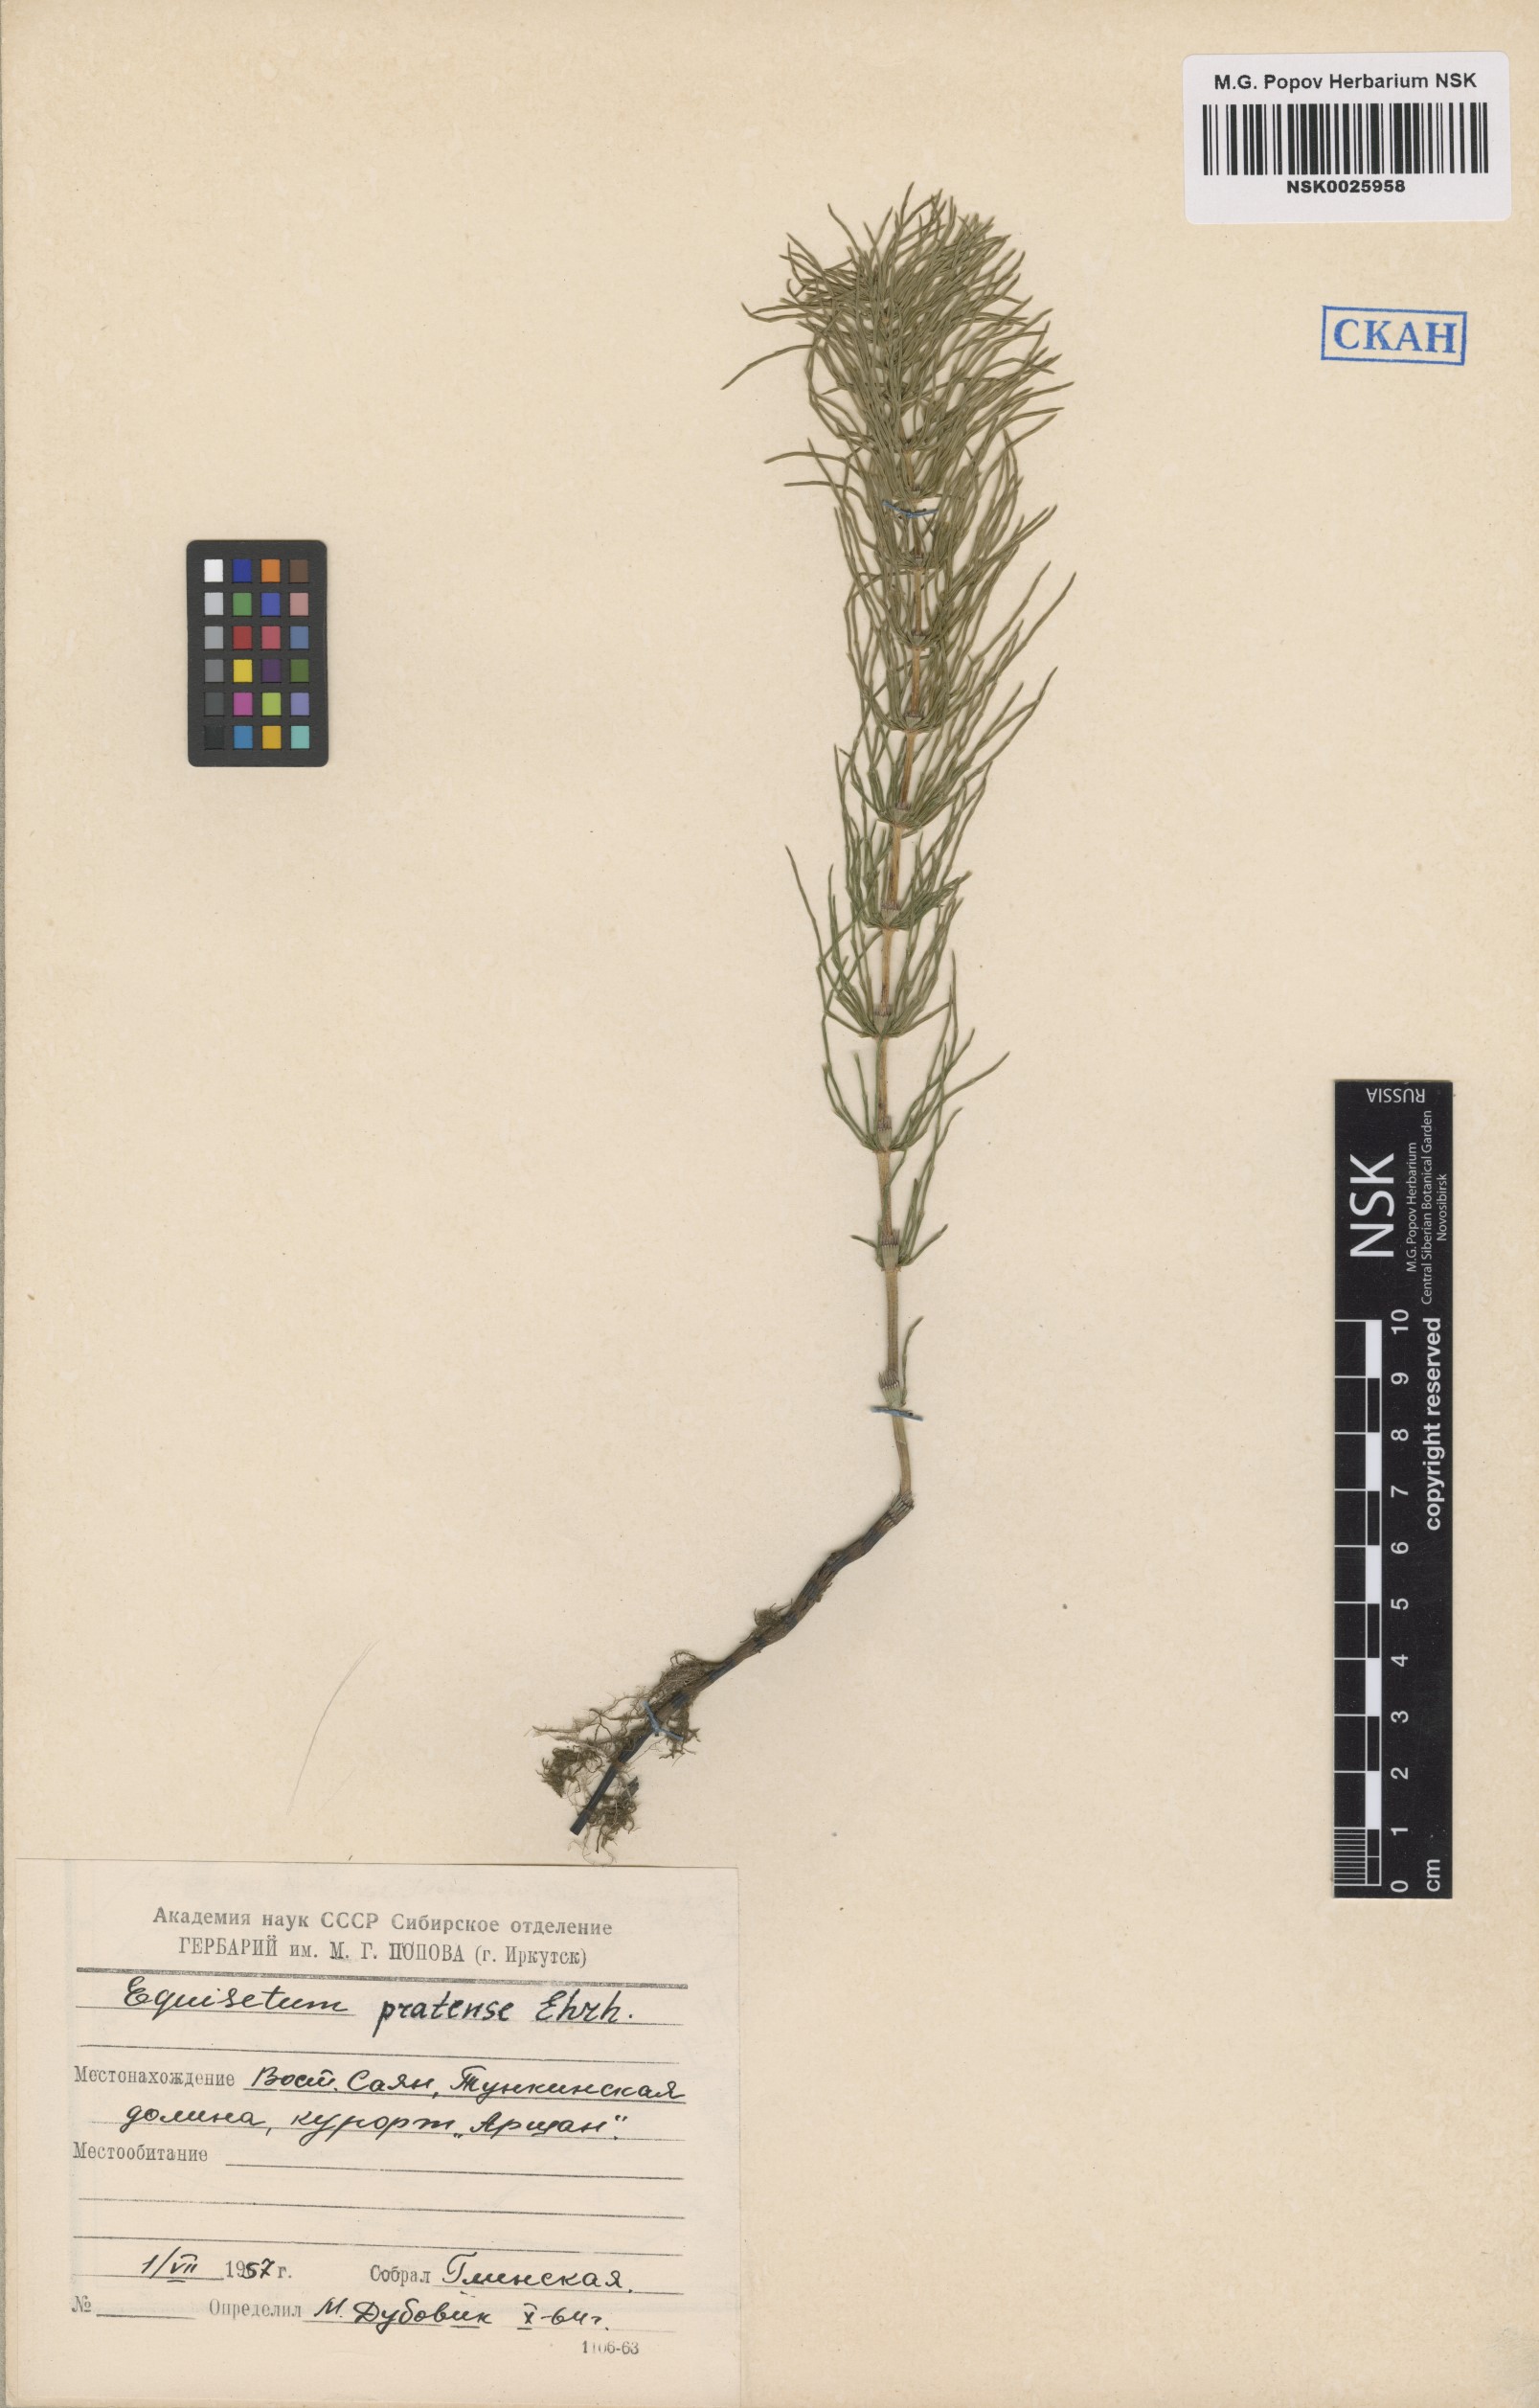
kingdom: Plantae
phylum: Tracheophyta
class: Polypodiopsida
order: Equisetales
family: Equisetaceae
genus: Equisetum
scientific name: Equisetum pratense
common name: Meadow horsetail
